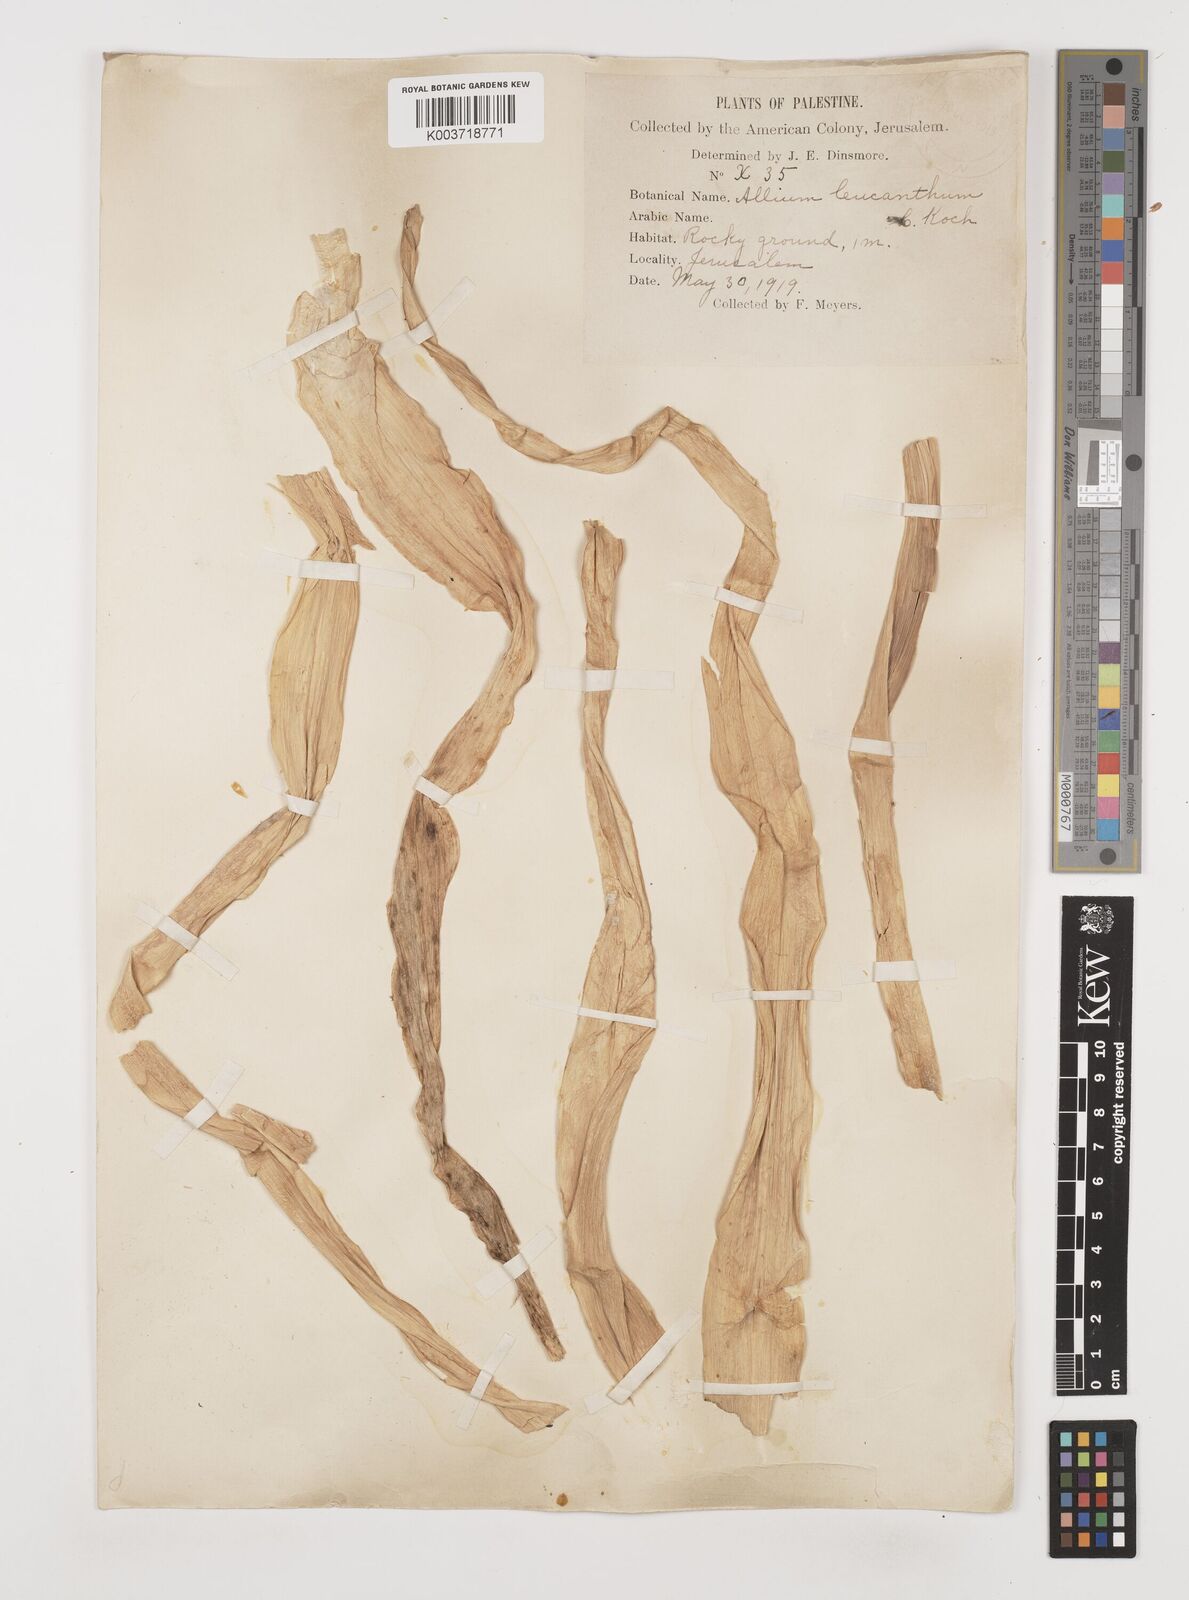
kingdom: Plantae
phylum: Tracheophyta
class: Liliopsida
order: Asparagales
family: Amaryllidaceae
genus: Allium
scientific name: Allium rotundum
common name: Sand leek
